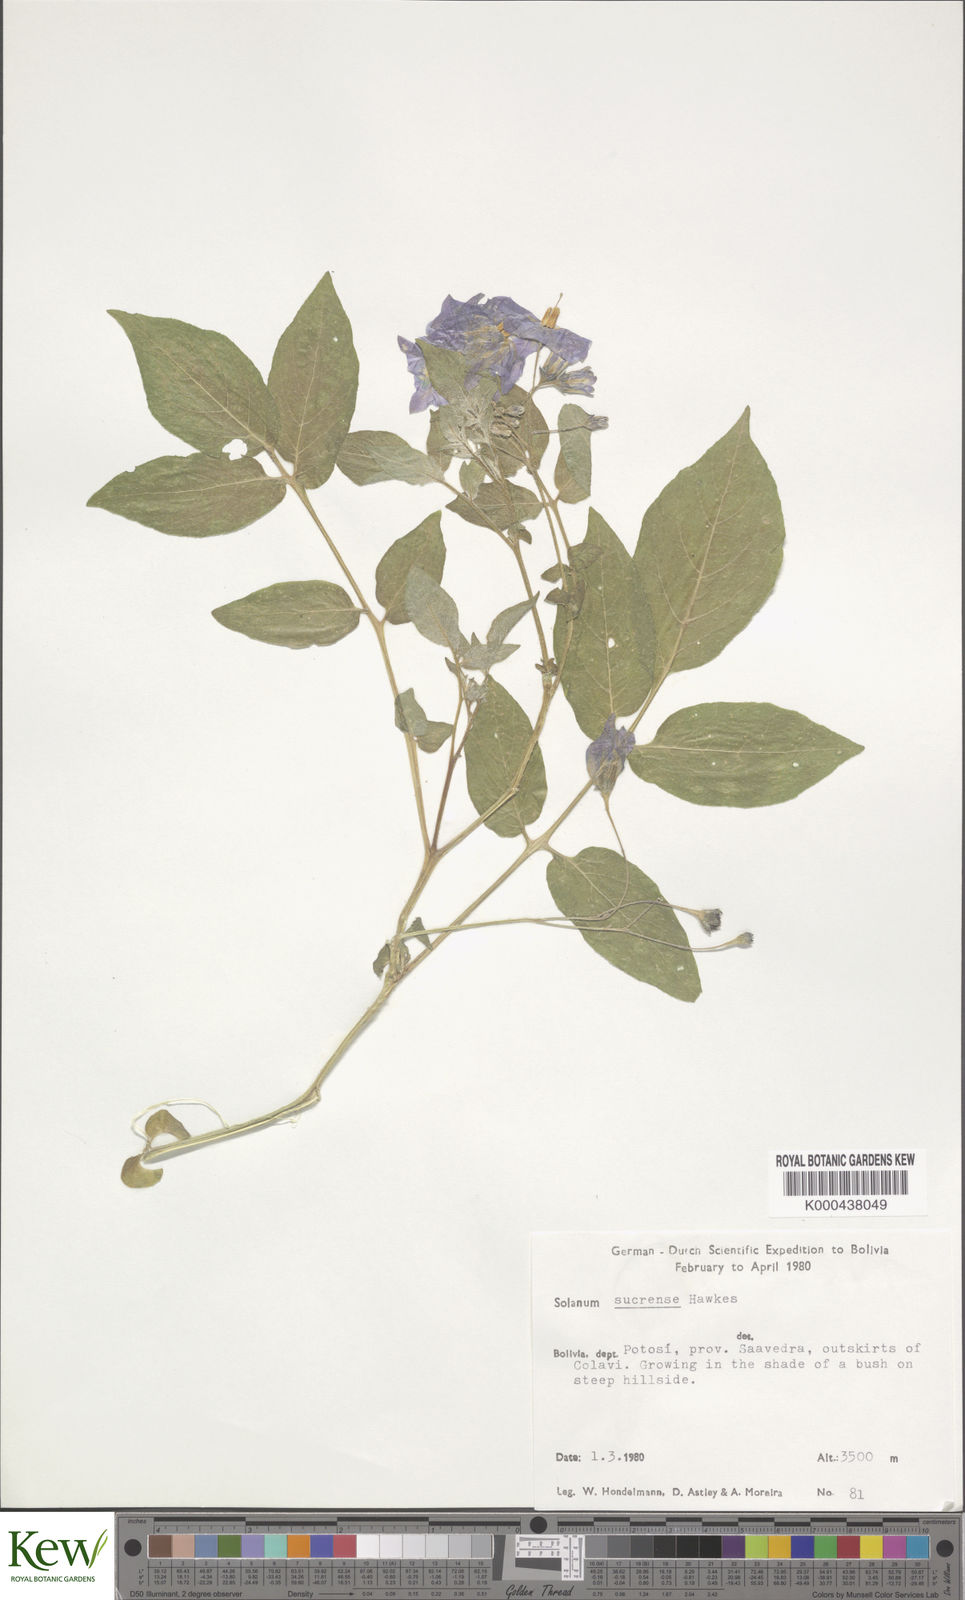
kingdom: Plantae
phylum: Tracheophyta
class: Magnoliopsida
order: Solanales
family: Solanaceae
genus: Solanum
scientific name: Solanum brevicaule
